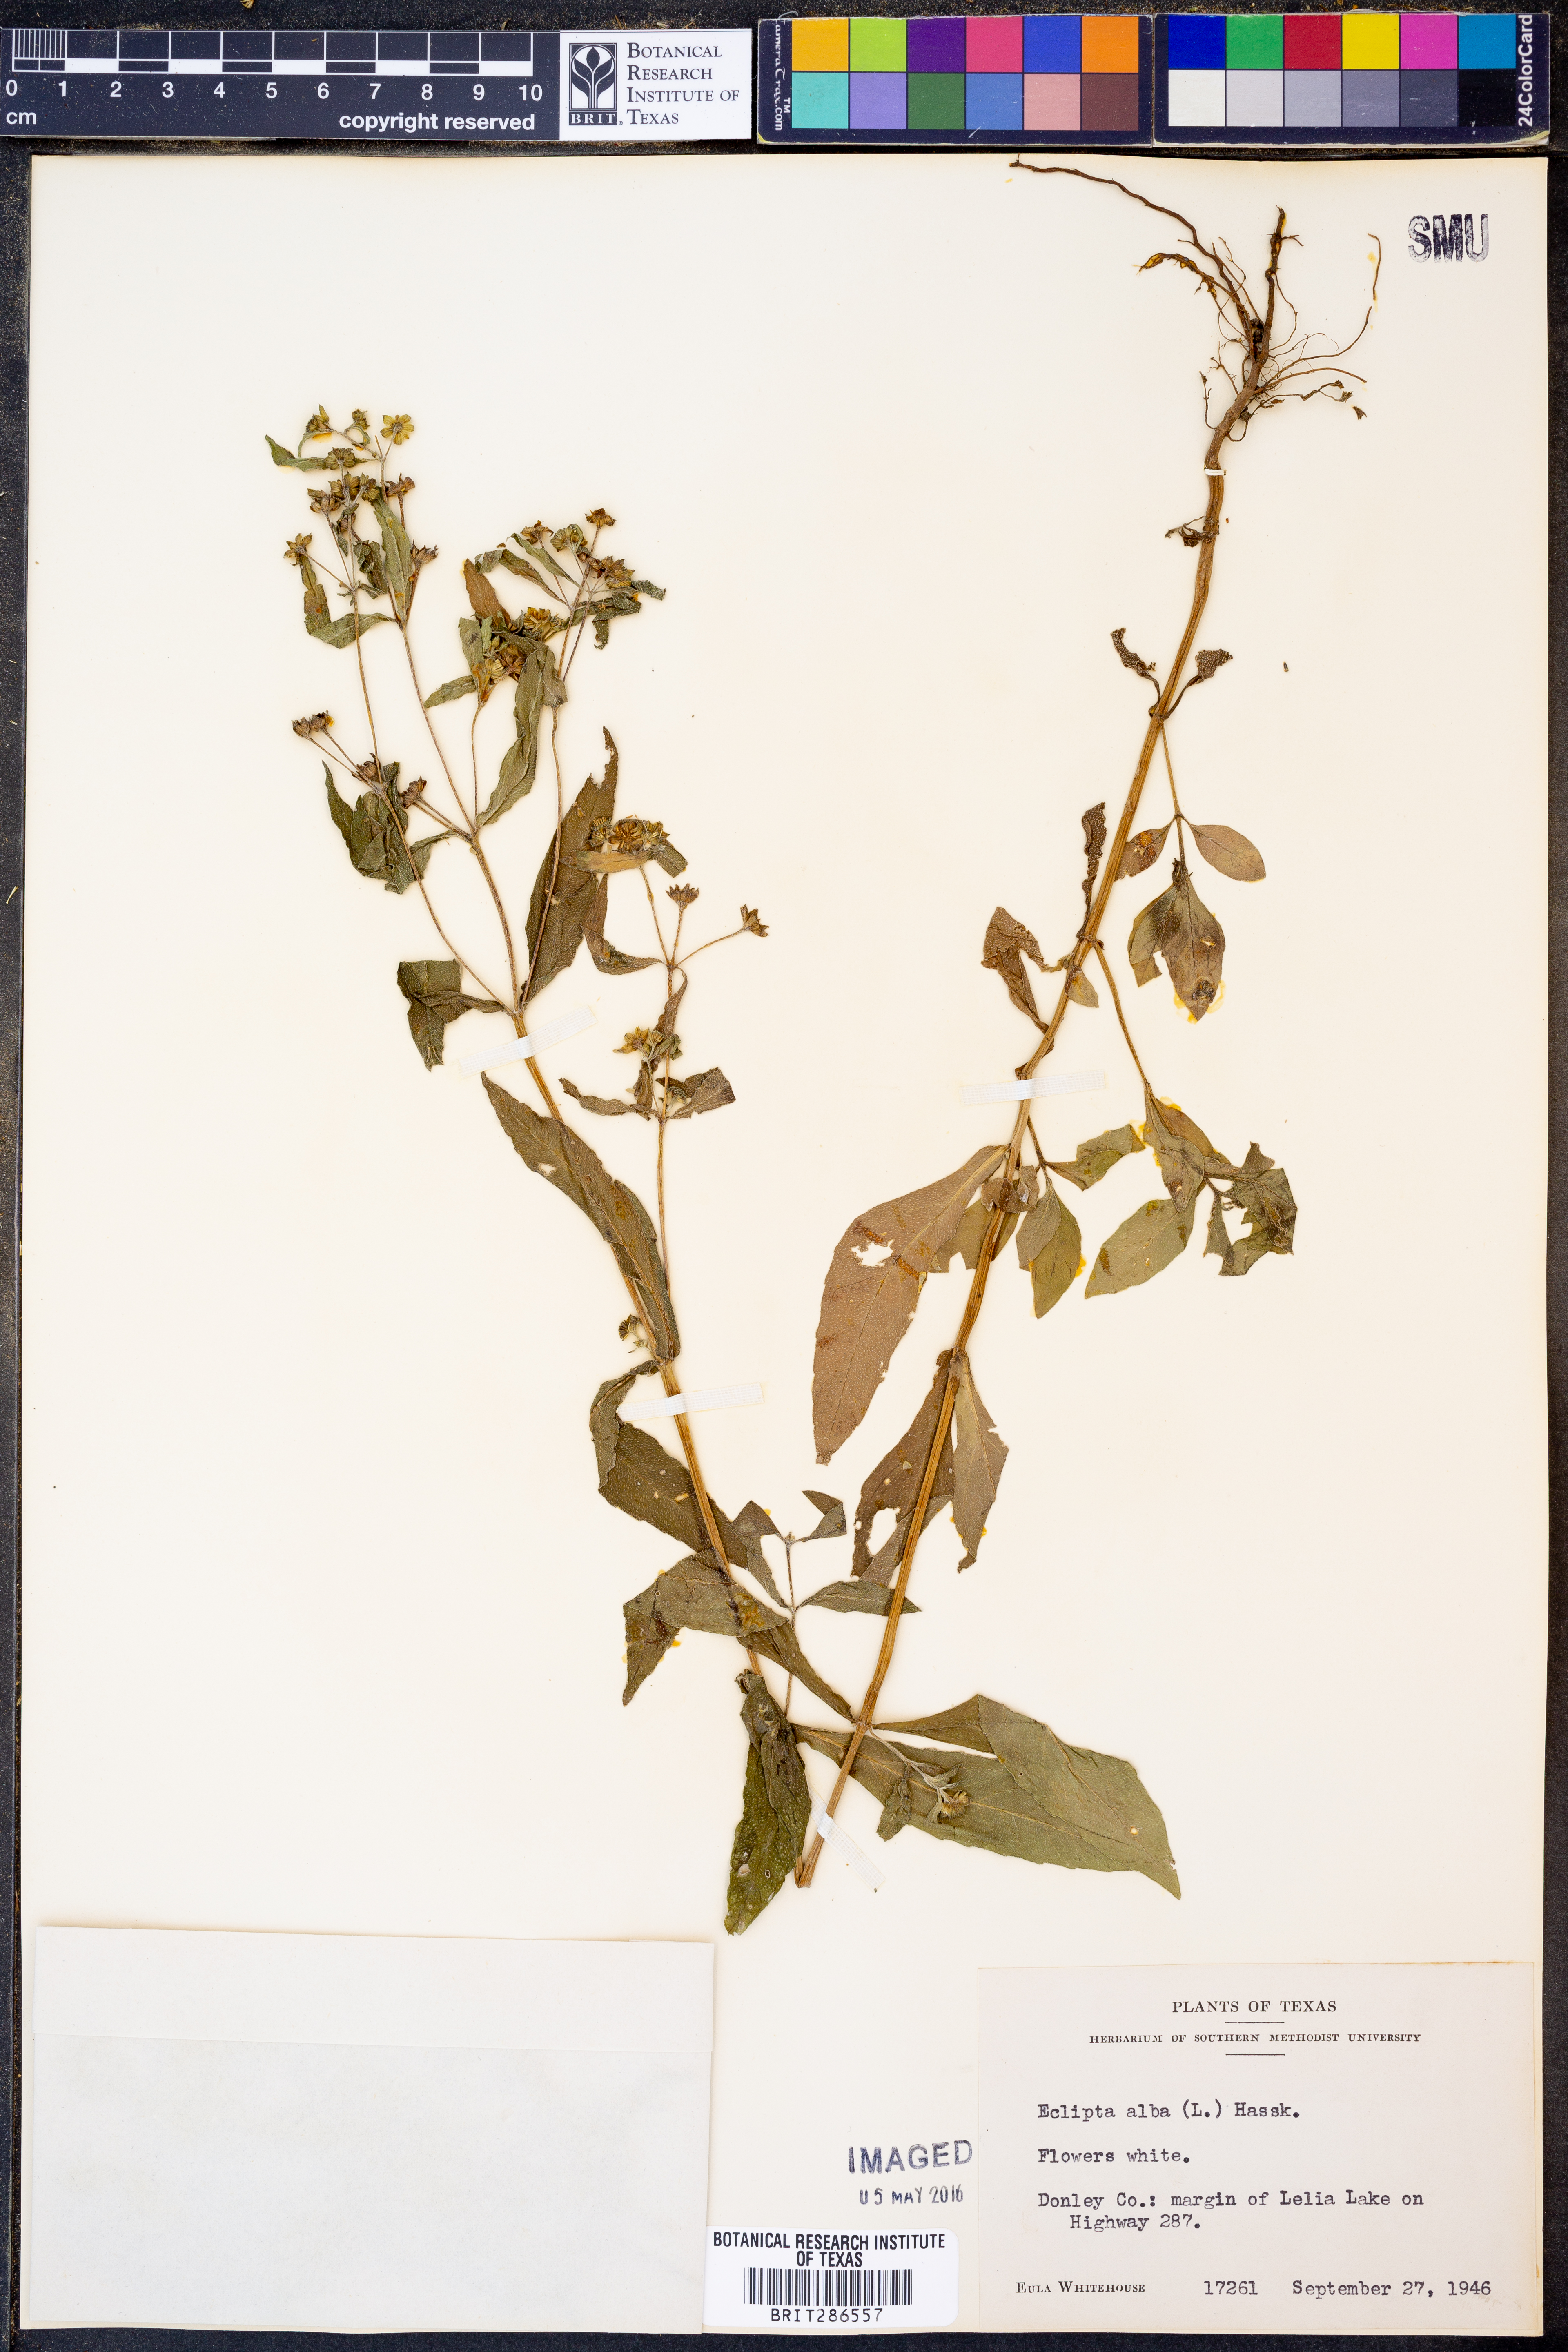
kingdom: Plantae
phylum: Tracheophyta
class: Magnoliopsida
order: Asterales
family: Asteraceae
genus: Eclipta
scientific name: Eclipta alba
